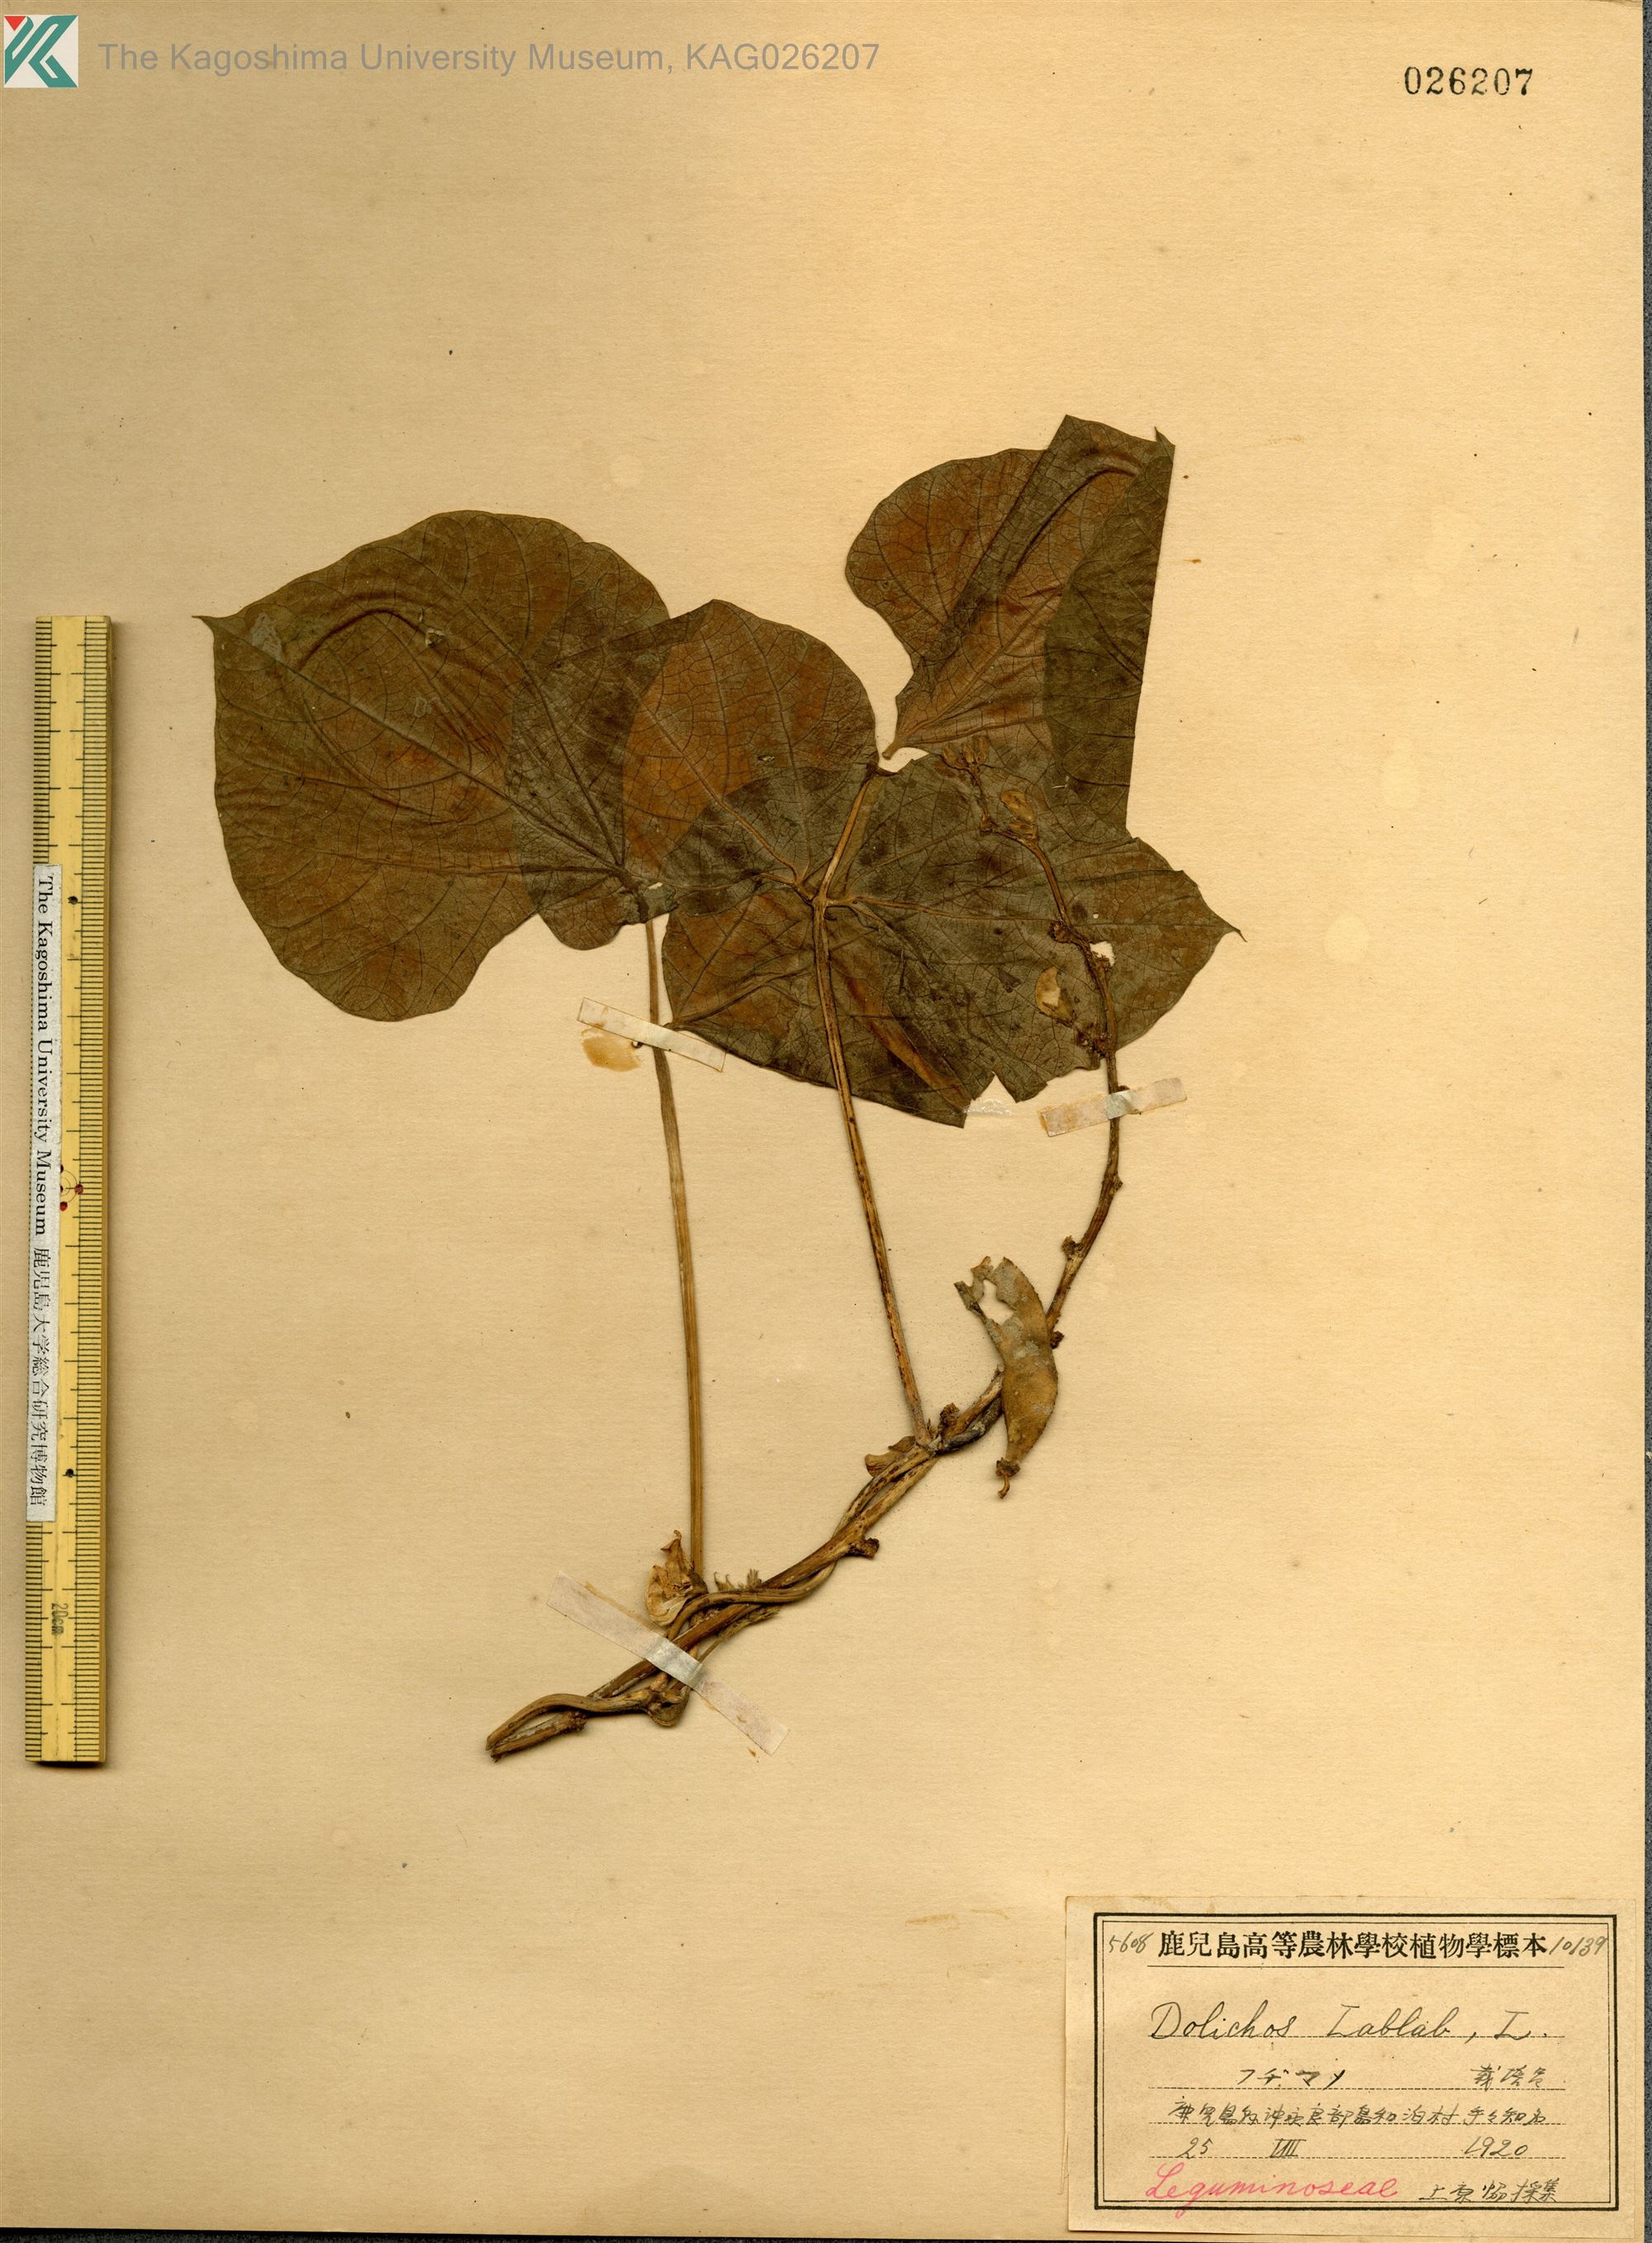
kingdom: Plantae
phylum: Tracheophyta
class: Magnoliopsida
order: Fabales
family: Fabaceae
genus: Lablab
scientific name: Lablab purpureus
